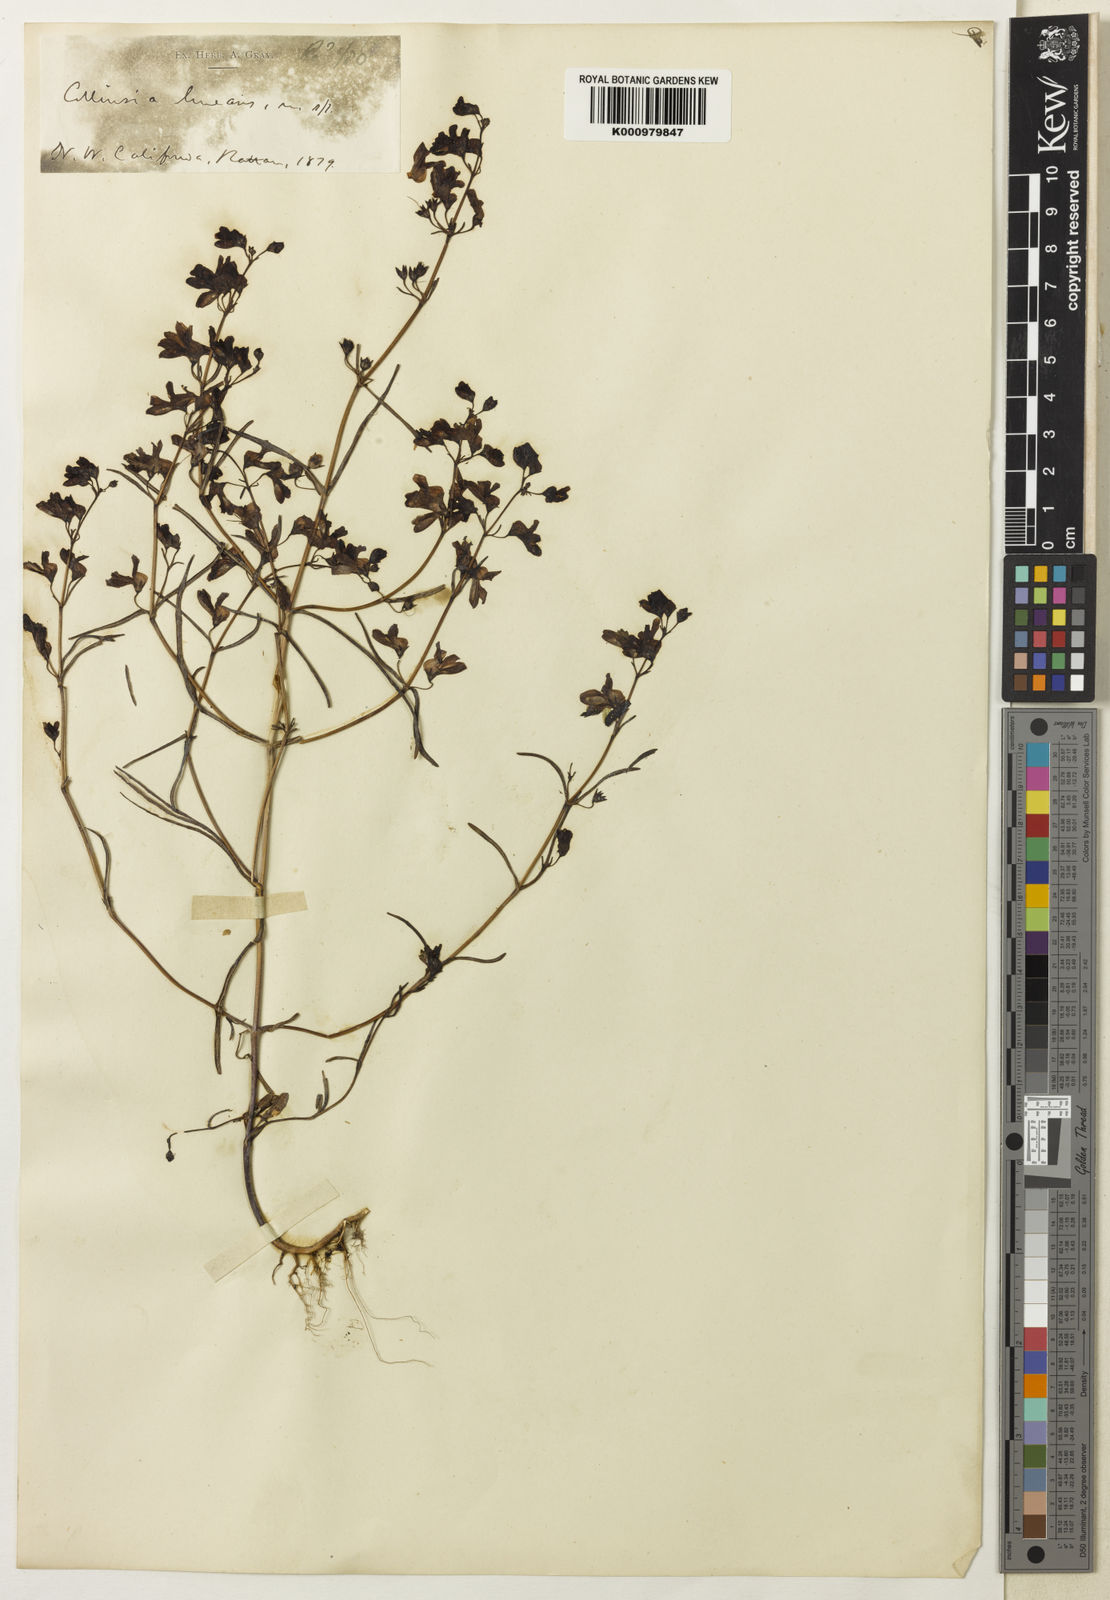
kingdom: Plantae
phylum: Tracheophyta
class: Magnoliopsida
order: Lamiales
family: Plantaginaceae
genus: Collinsia
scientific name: Collinsia rattanii
